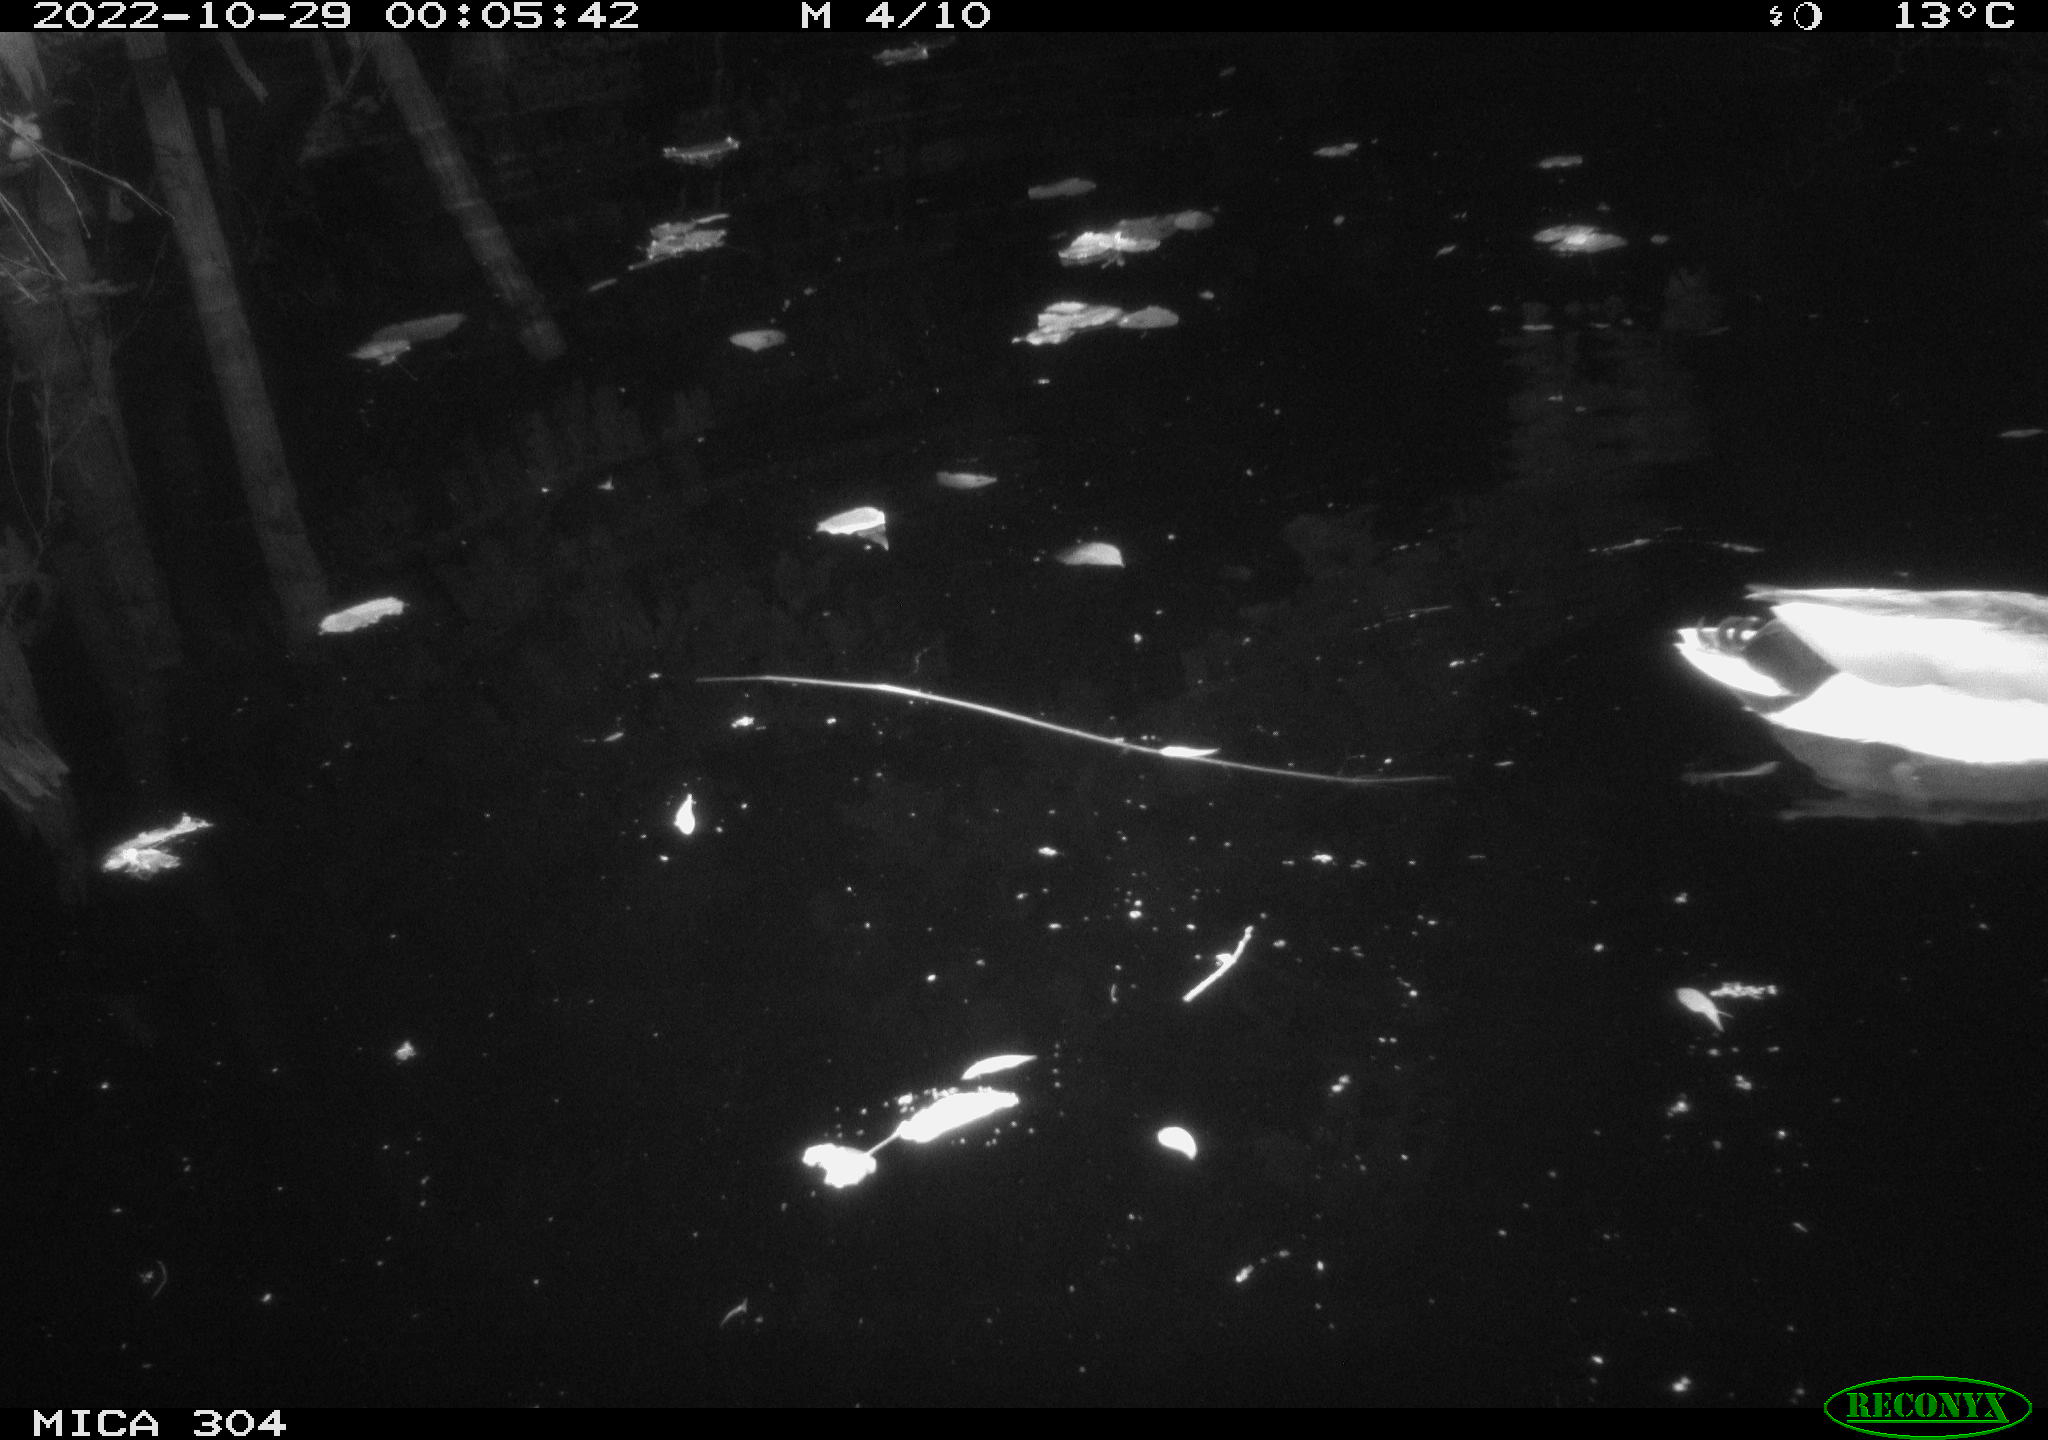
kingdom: Animalia
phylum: Chordata
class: Aves
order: Anseriformes
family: Anatidae
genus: Anas
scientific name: Anas
